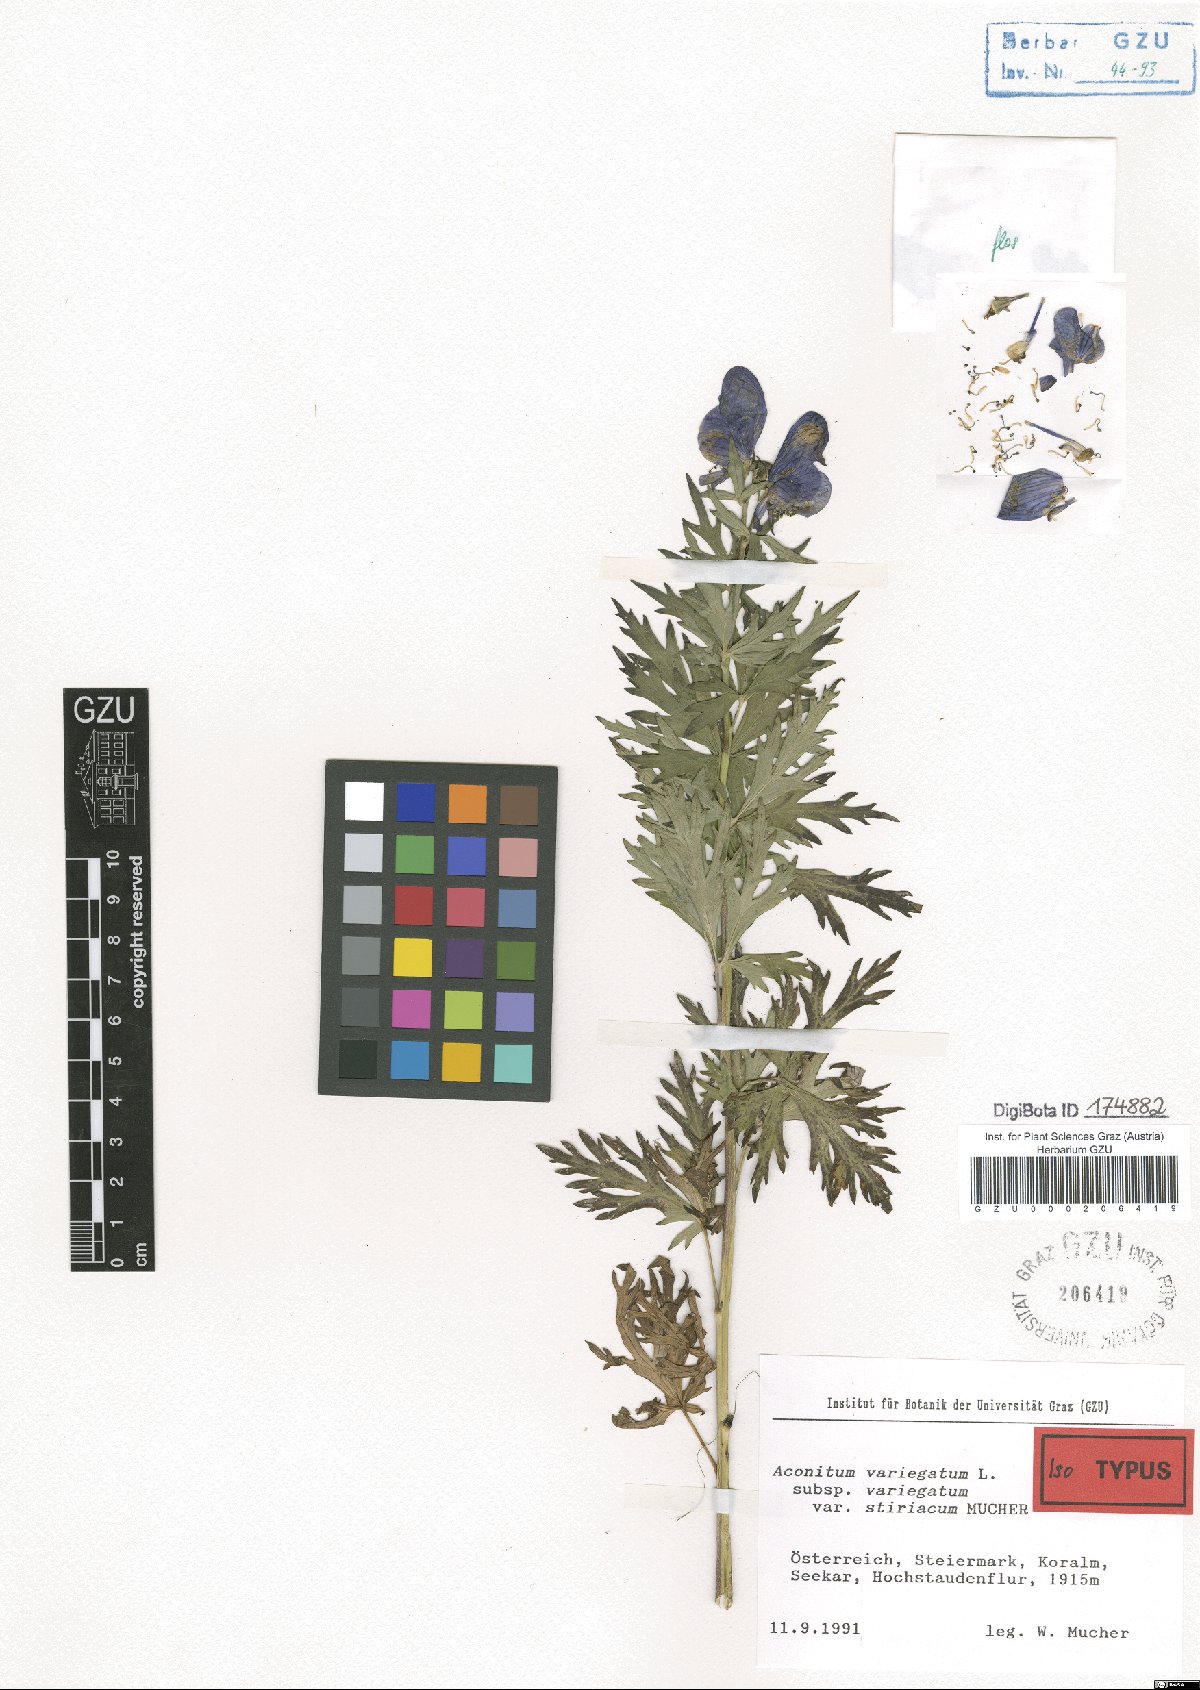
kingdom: Plantae
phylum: Tracheophyta
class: Magnoliopsida
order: Ranunculales
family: Ranunculaceae
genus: Aconitum
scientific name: Aconitum variegatum
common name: Manchurian monkshood
